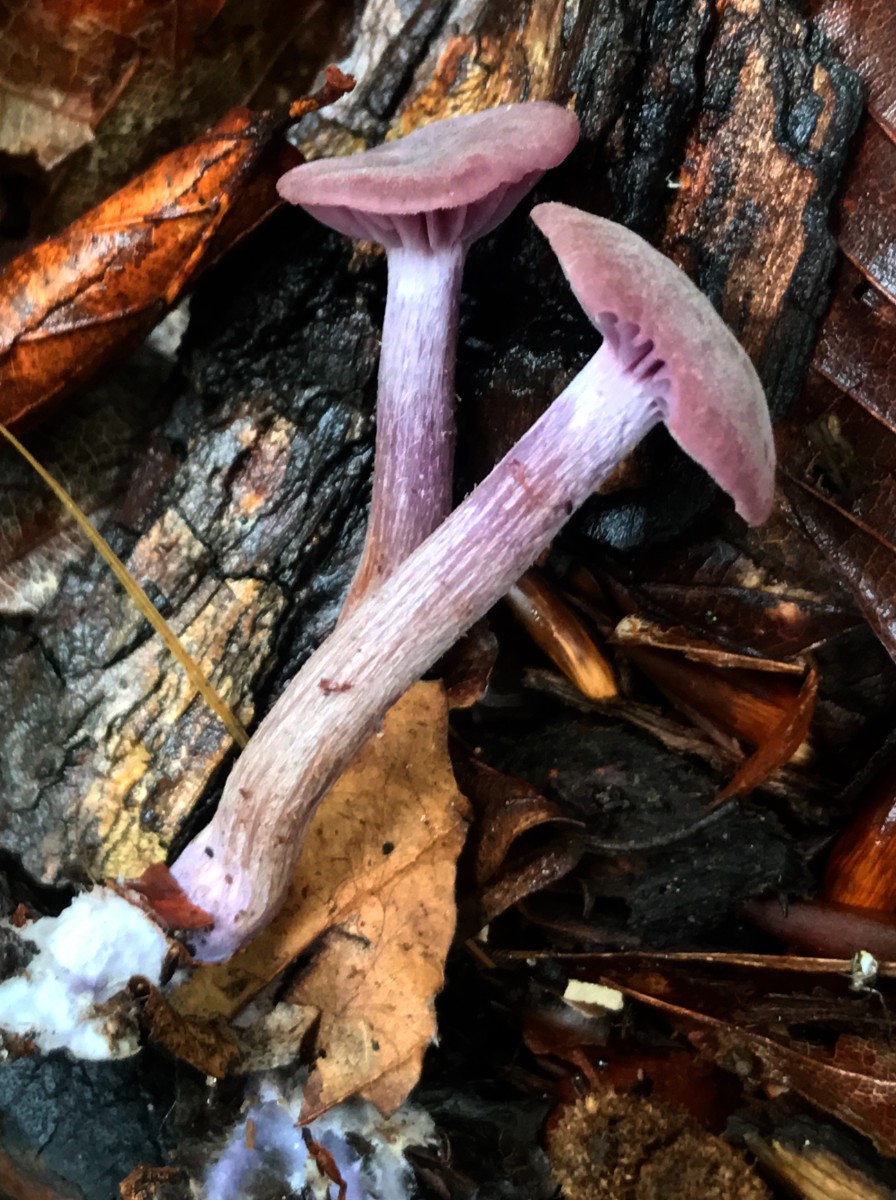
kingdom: Fungi
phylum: Basidiomycota
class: Agaricomycetes
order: Agaricales
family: Hydnangiaceae
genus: Laccaria
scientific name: Laccaria amethystina
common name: violet ametysthat
